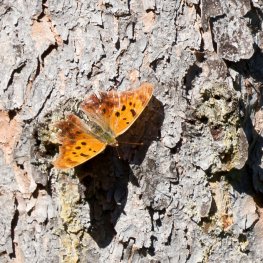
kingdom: Animalia
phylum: Arthropoda
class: Insecta
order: Lepidoptera
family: Nymphalidae
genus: Polygonia
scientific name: Polygonia interrogationis
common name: Question Mark
